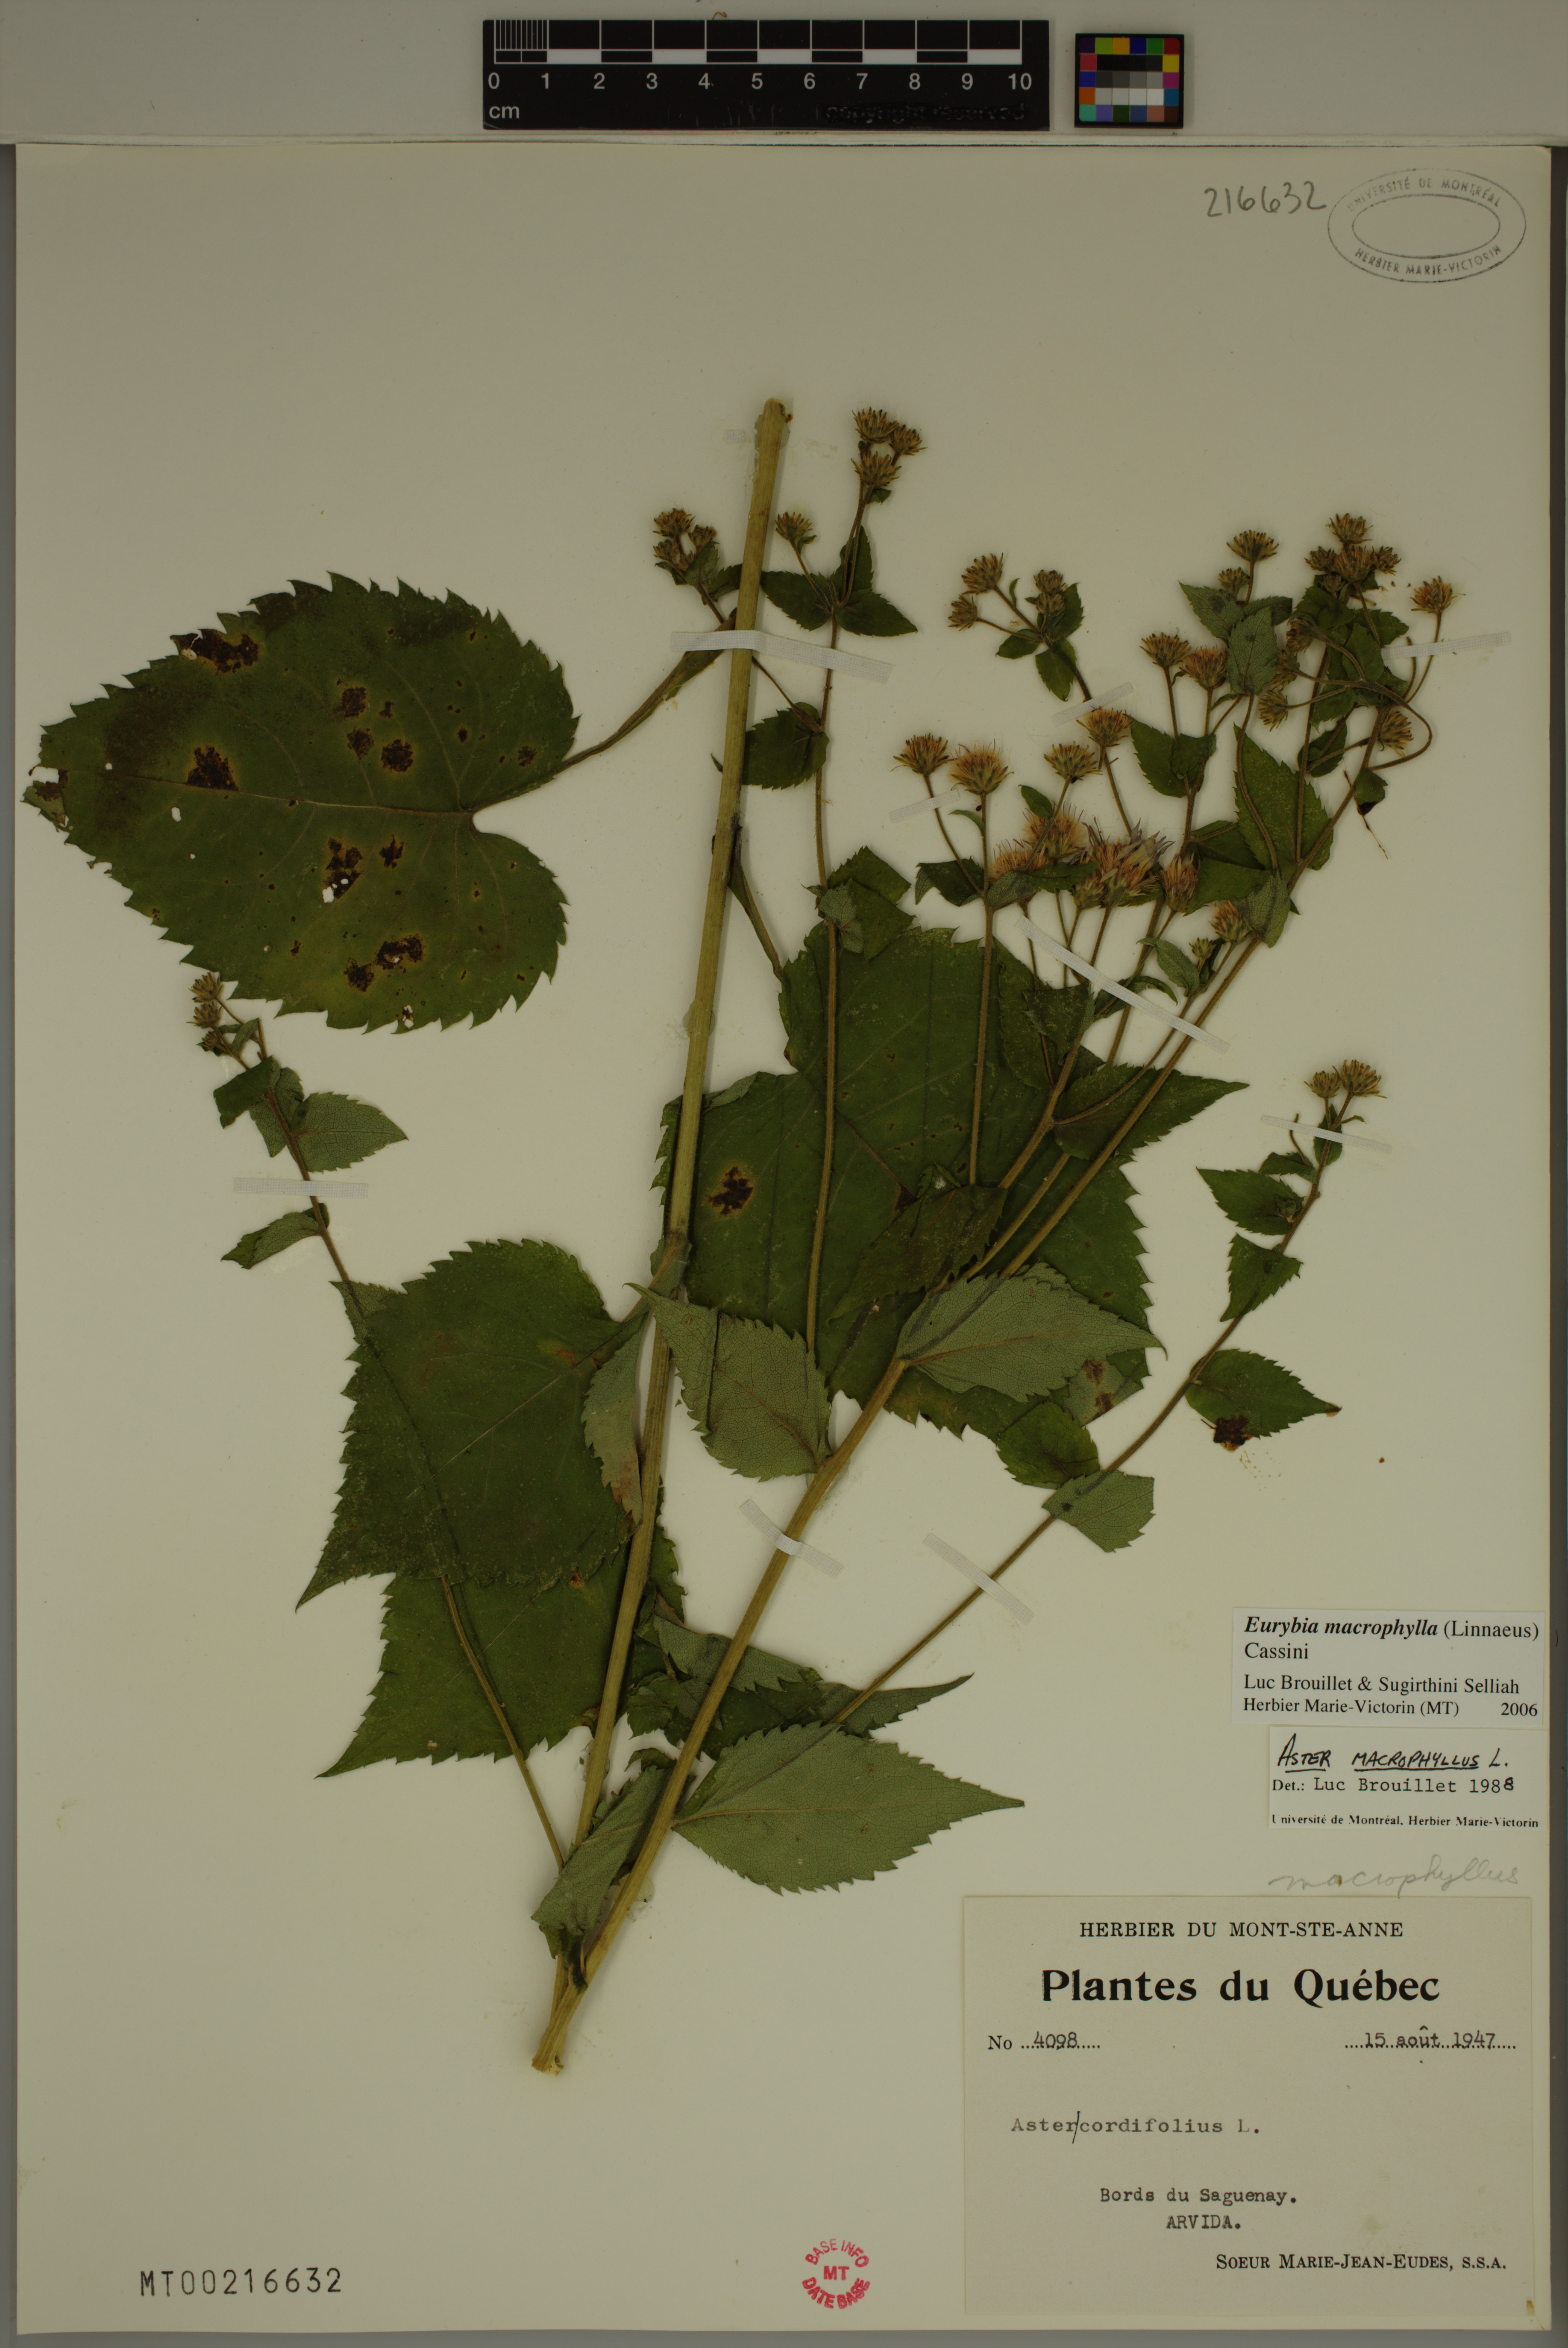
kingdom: Plantae
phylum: Tracheophyta
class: Magnoliopsida
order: Asterales
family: Asteraceae
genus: Eurybia
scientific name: Eurybia macrophylla
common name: Big-leaved aster
